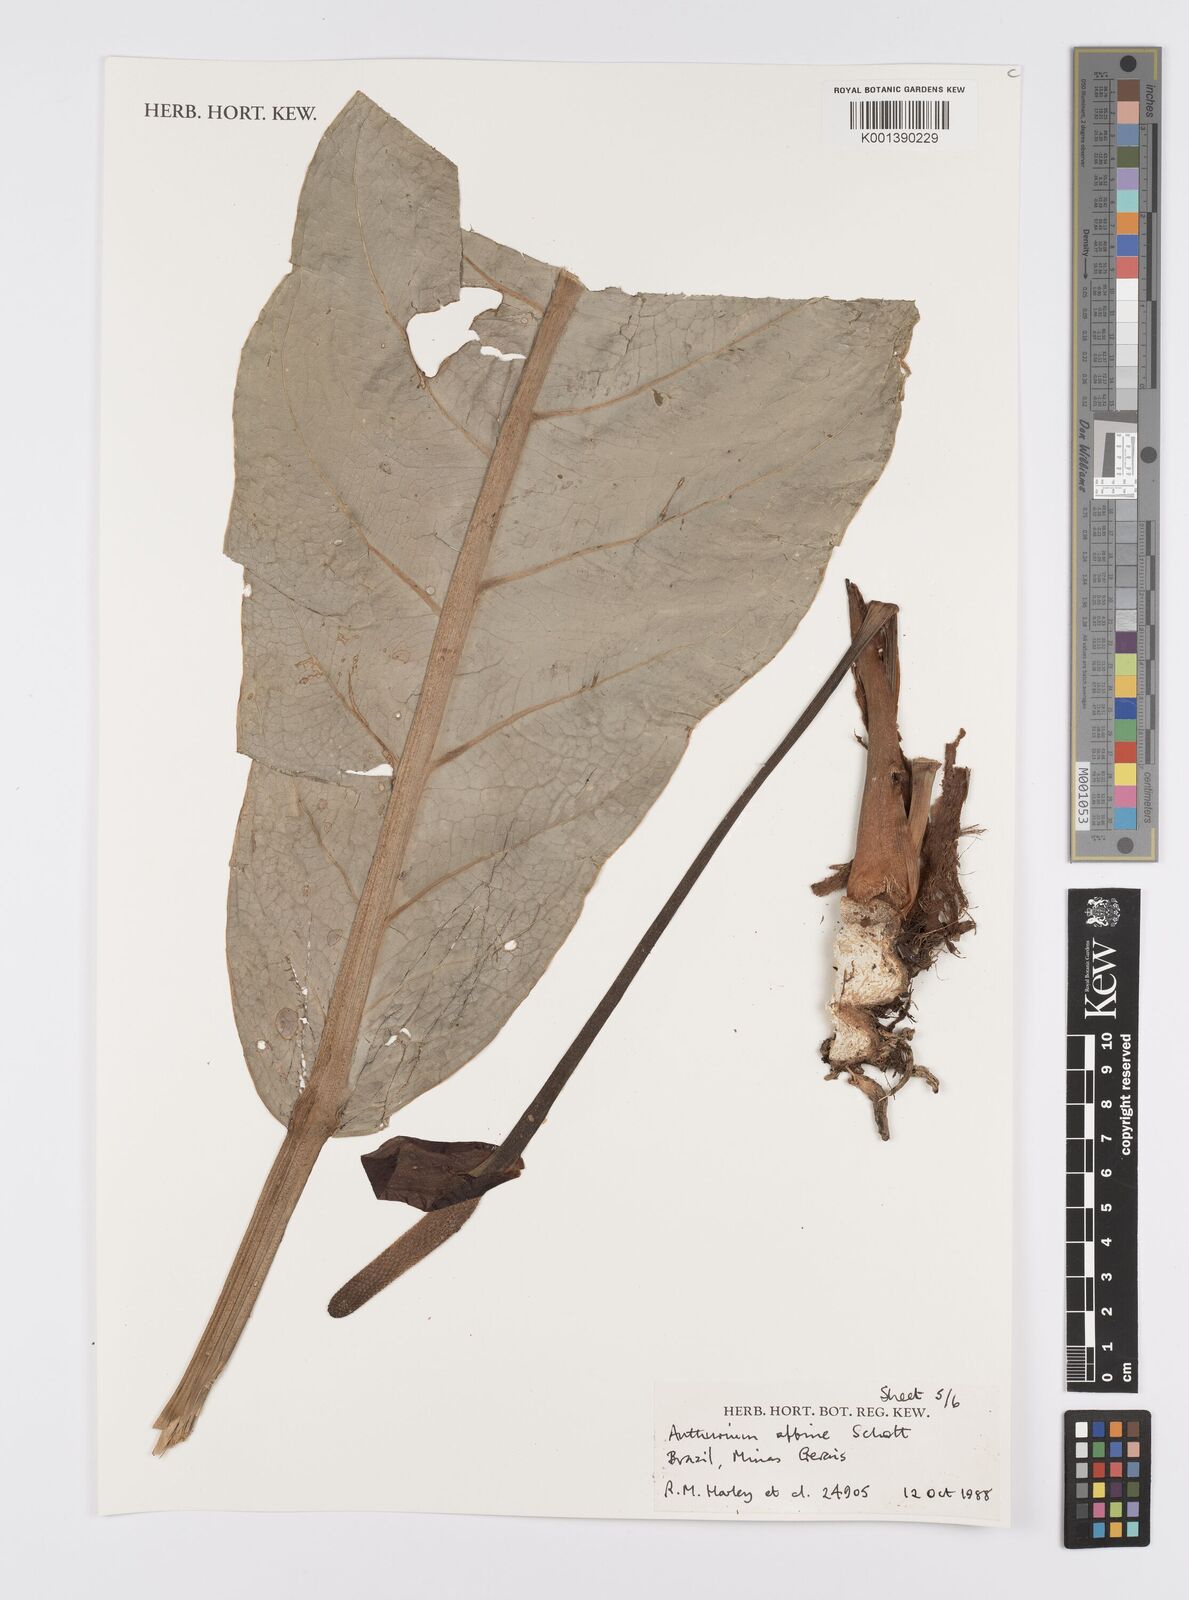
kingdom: Plantae
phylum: Tracheophyta
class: Liliopsida
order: Alismatales
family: Araceae
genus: Anthurium
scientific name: Anthurium affine
